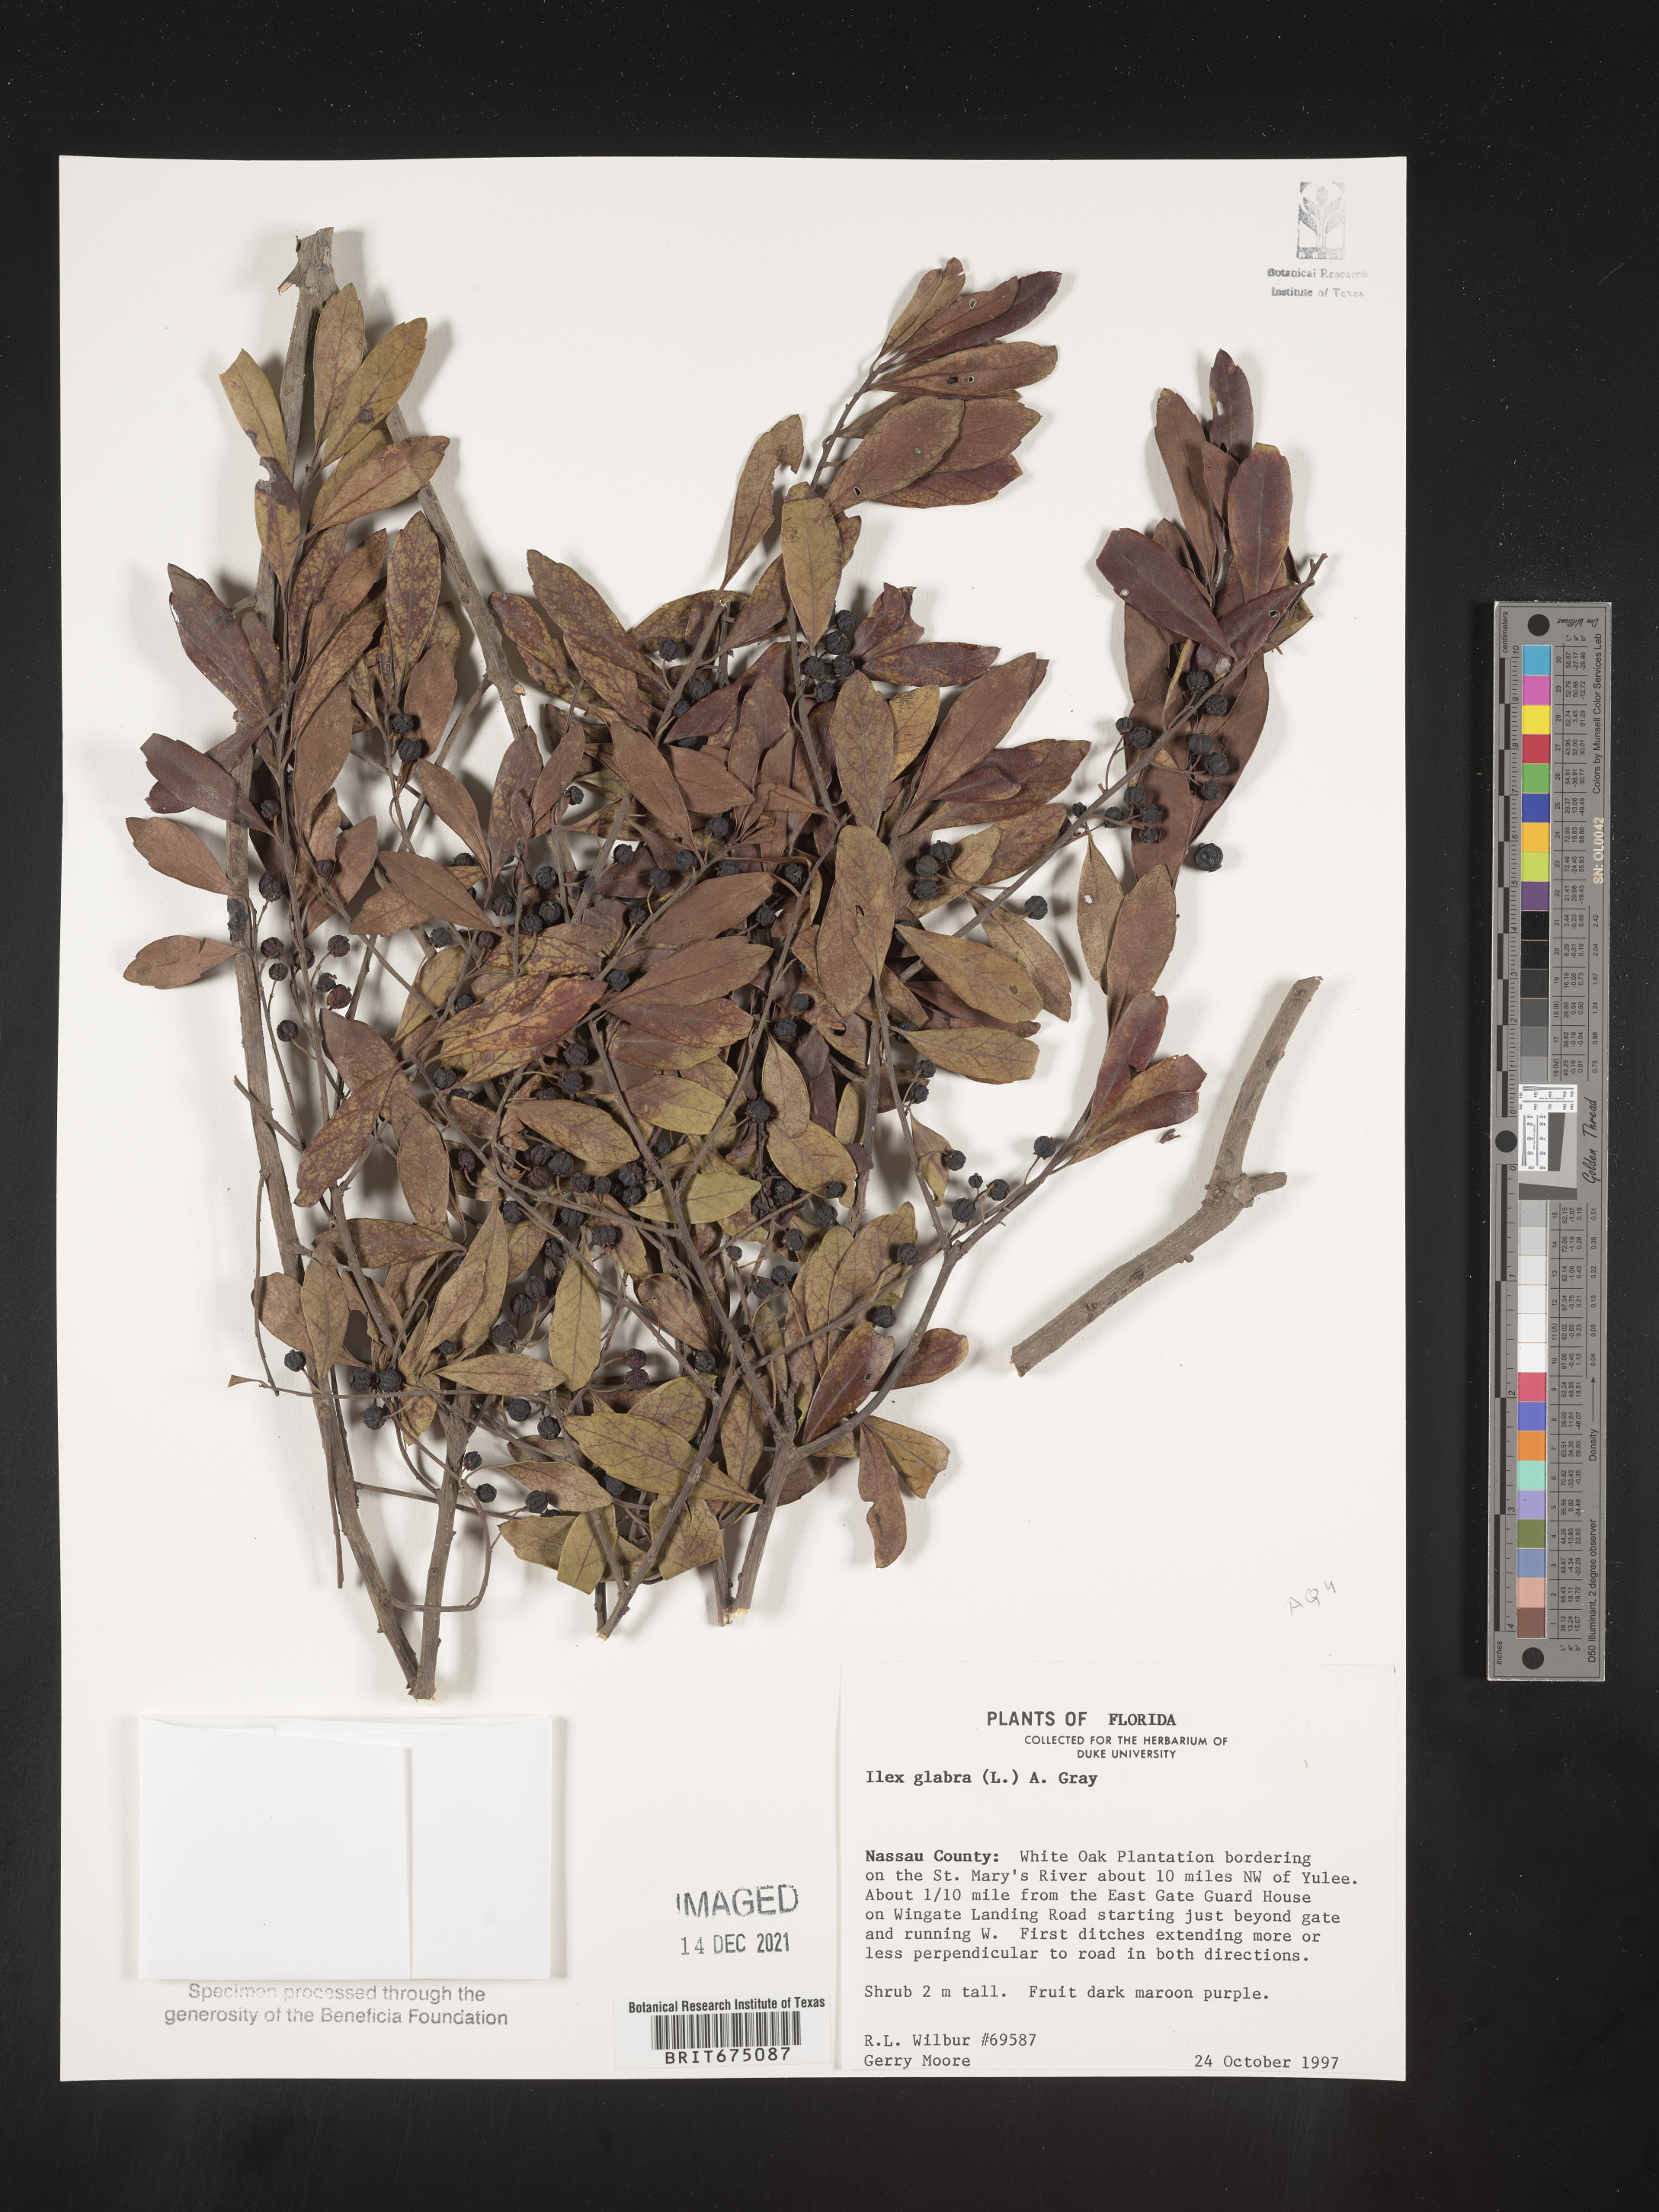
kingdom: Plantae
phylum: Tracheophyta
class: Magnoliopsida
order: Aquifoliales
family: Aquifoliaceae
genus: Ilex
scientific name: Ilex glabra
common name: Bitter gallberry
